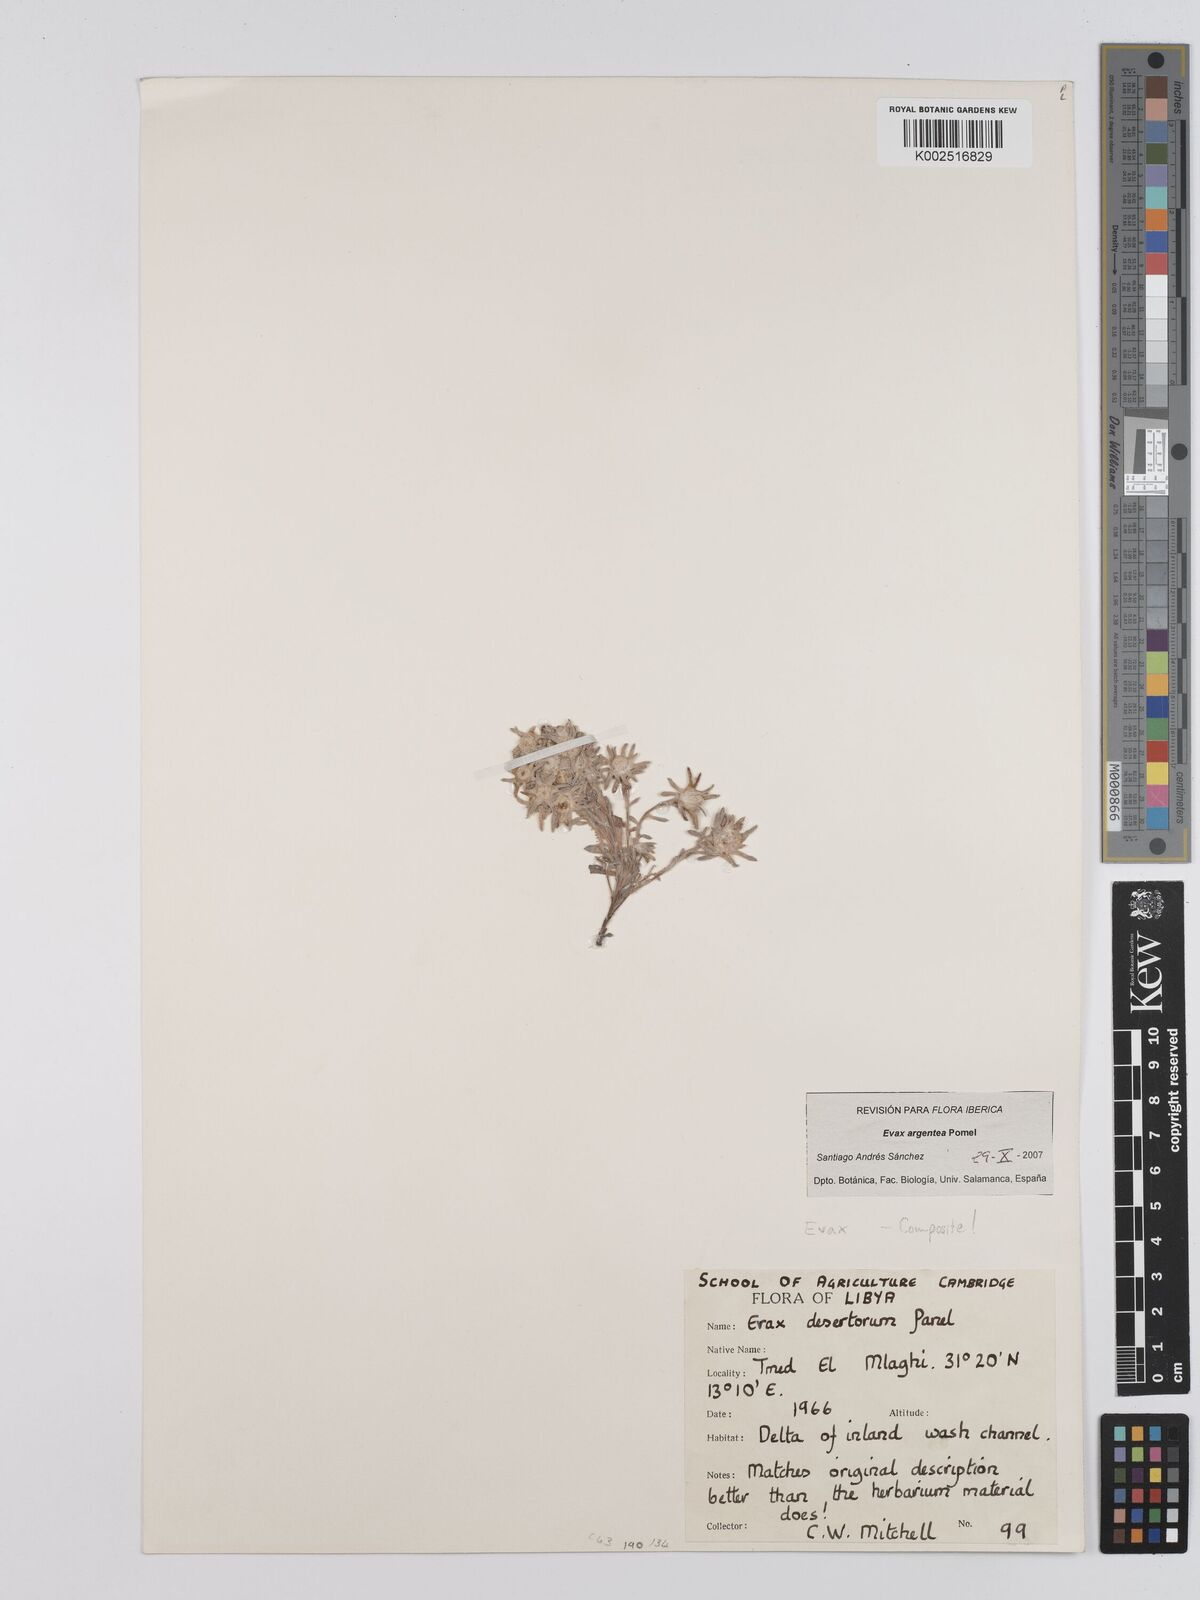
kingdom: Plantae
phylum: Tracheophyta
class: Magnoliopsida
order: Asterales
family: Asteraceae
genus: Filago
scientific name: Filago desertorum
